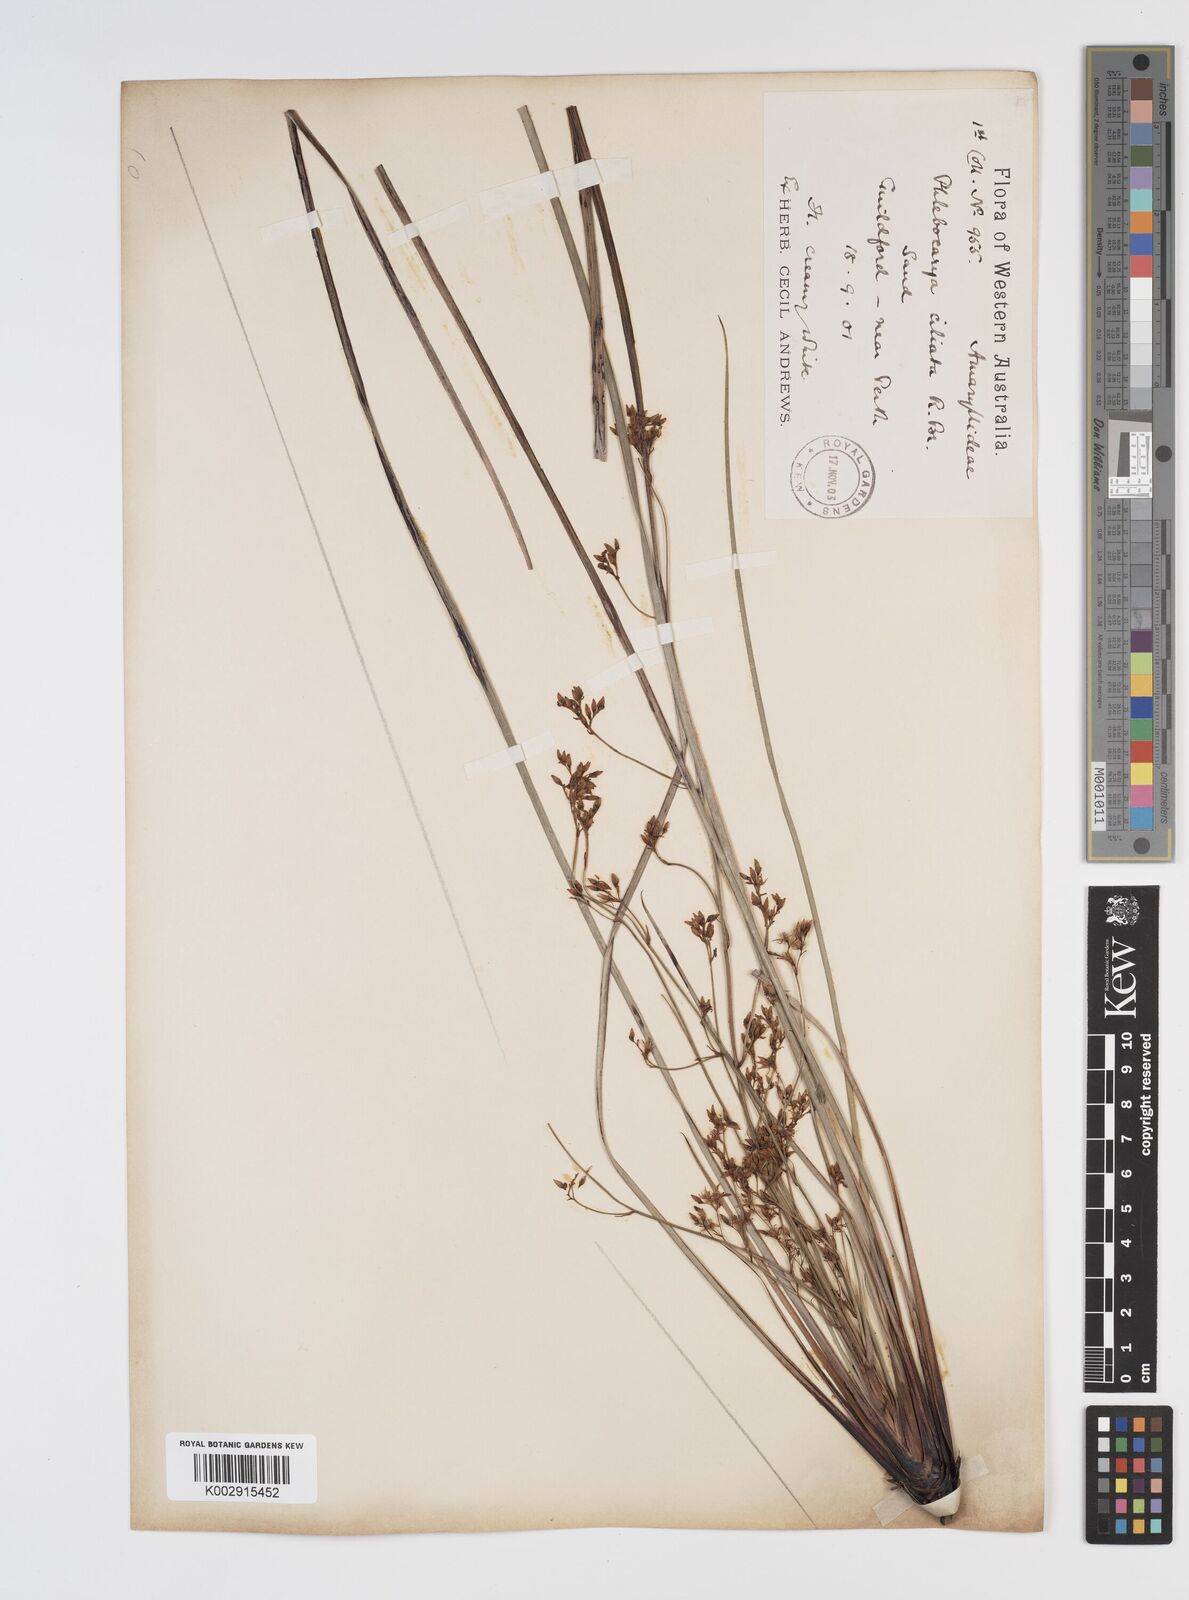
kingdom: Plantae
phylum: Tracheophyta
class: Liliopsida
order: Commelinales
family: Haemodoraceae
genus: Phlebocarya
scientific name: Phlebocarya ciliata
